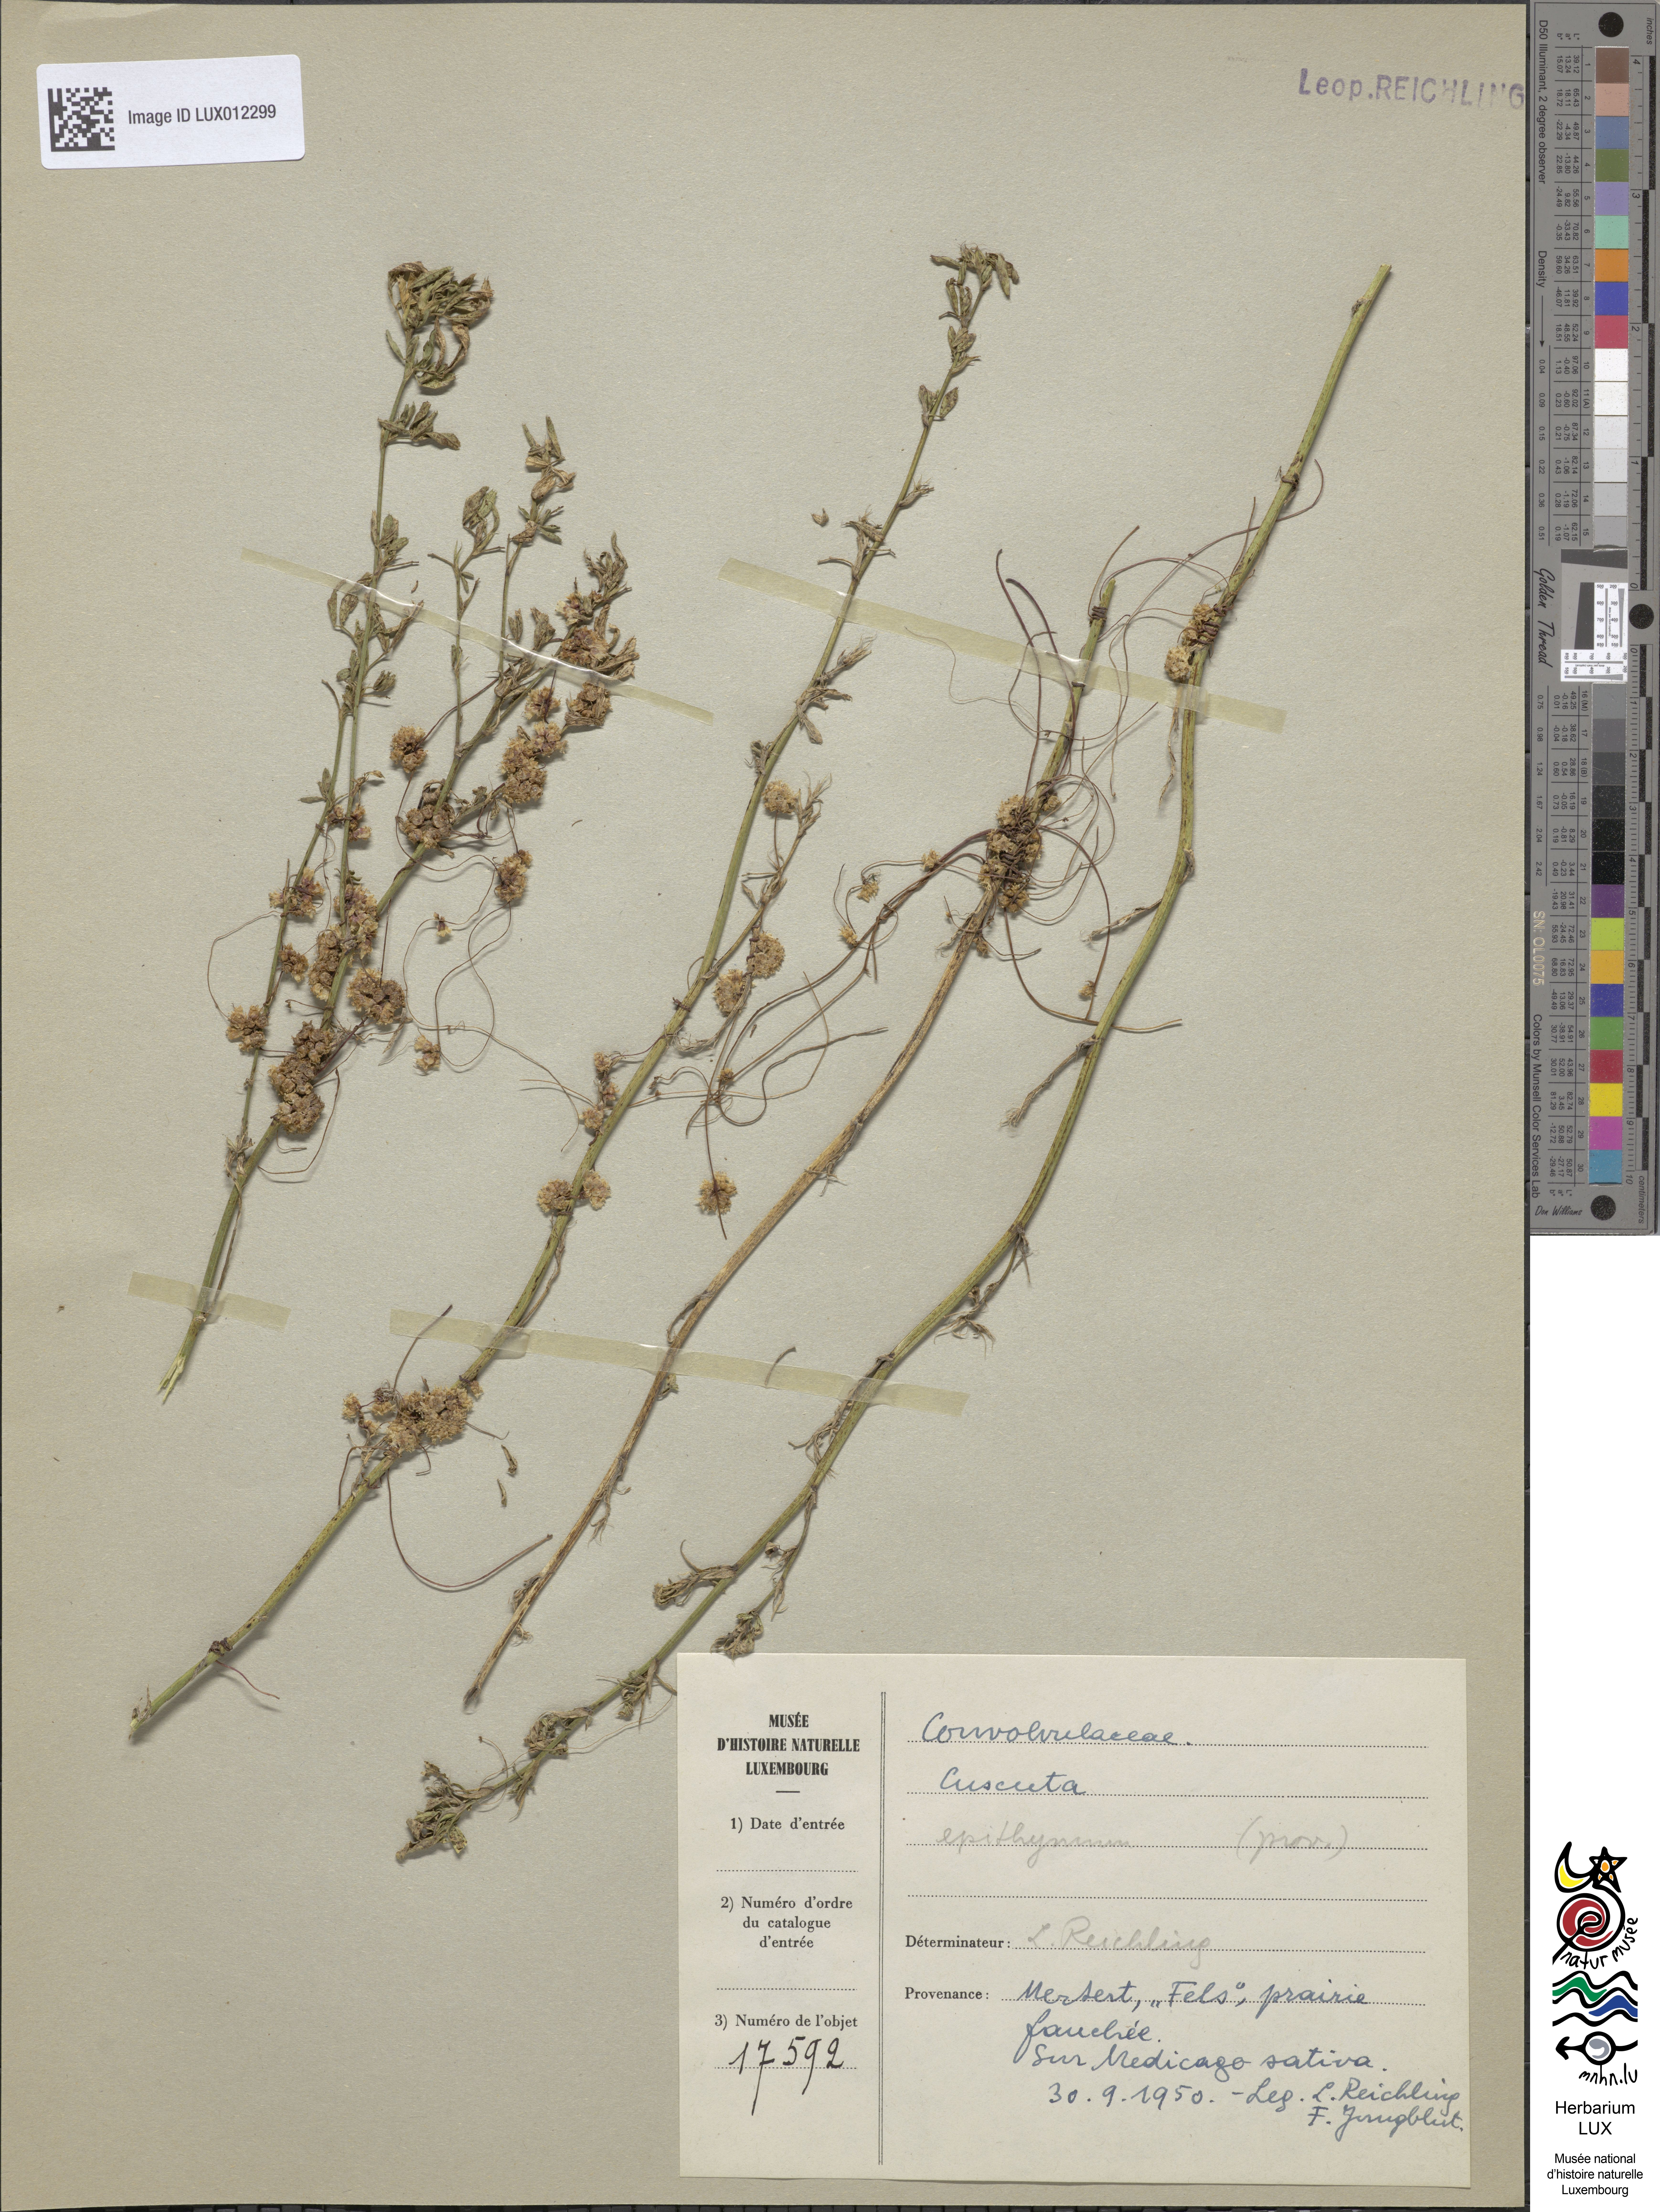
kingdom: Plantae
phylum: Tracheophyta
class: Magnoliopsida
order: Solanales
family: Convolvulaceae
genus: Cuscuta
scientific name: Cuscuta epithymum
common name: Clover dodder
